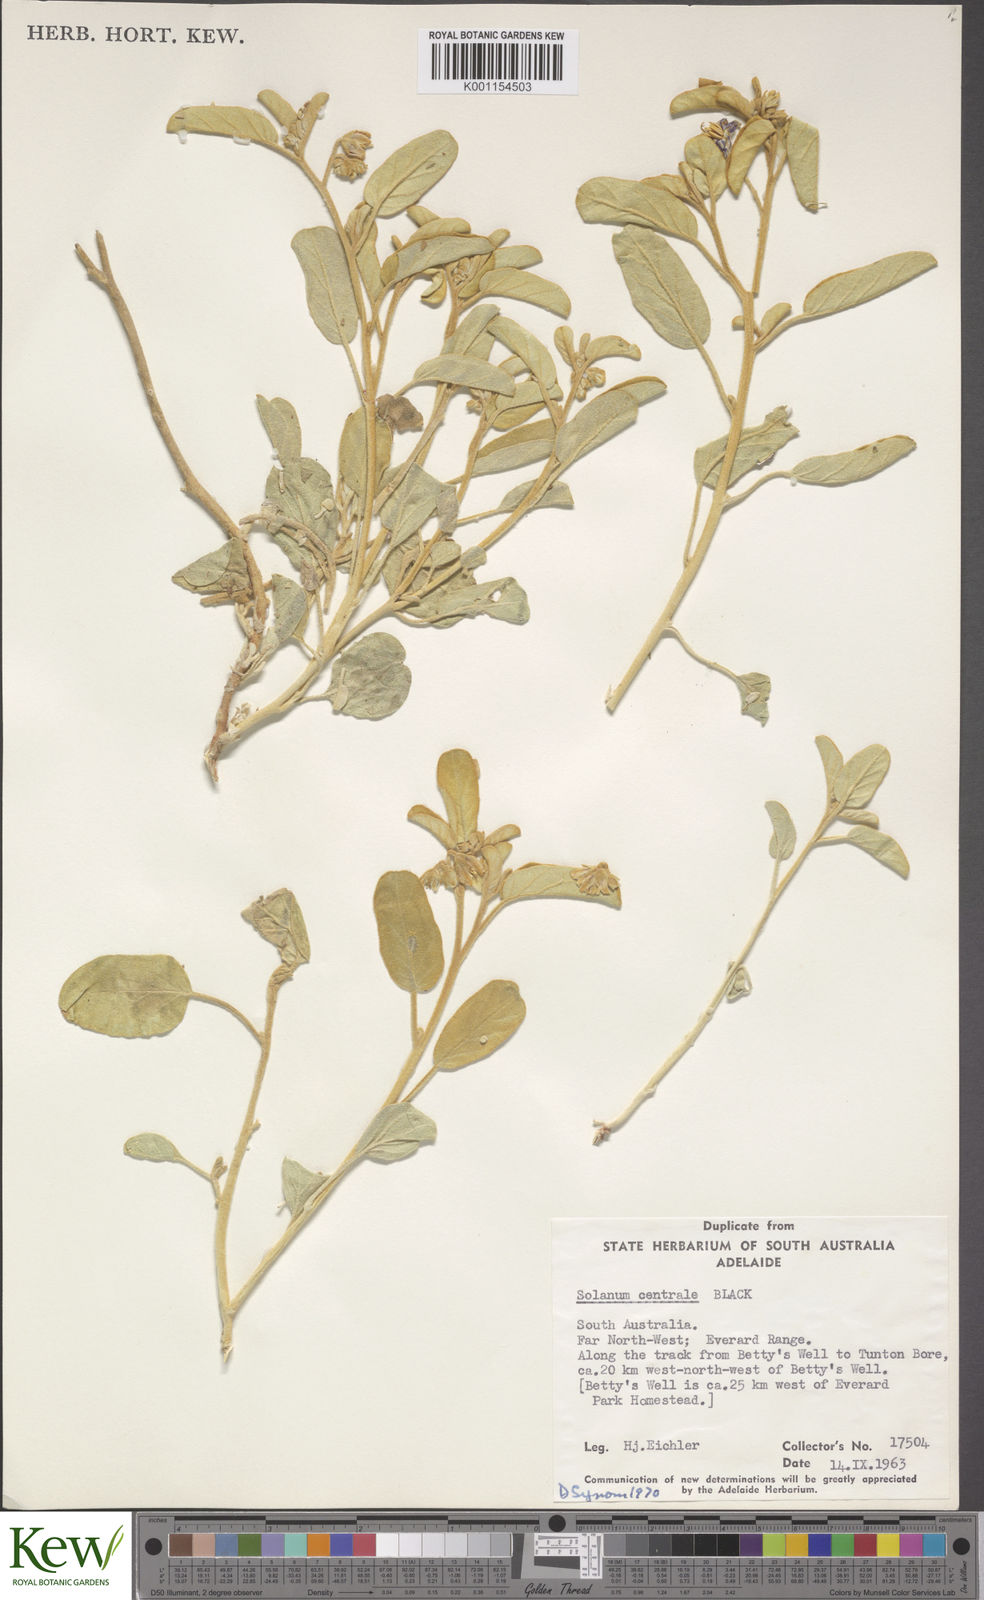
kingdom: Plantae
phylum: Tracheophyta
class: Magnoliopsida
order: Solanales
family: Solanaceae
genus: Solanum
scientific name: Solanum centrale
